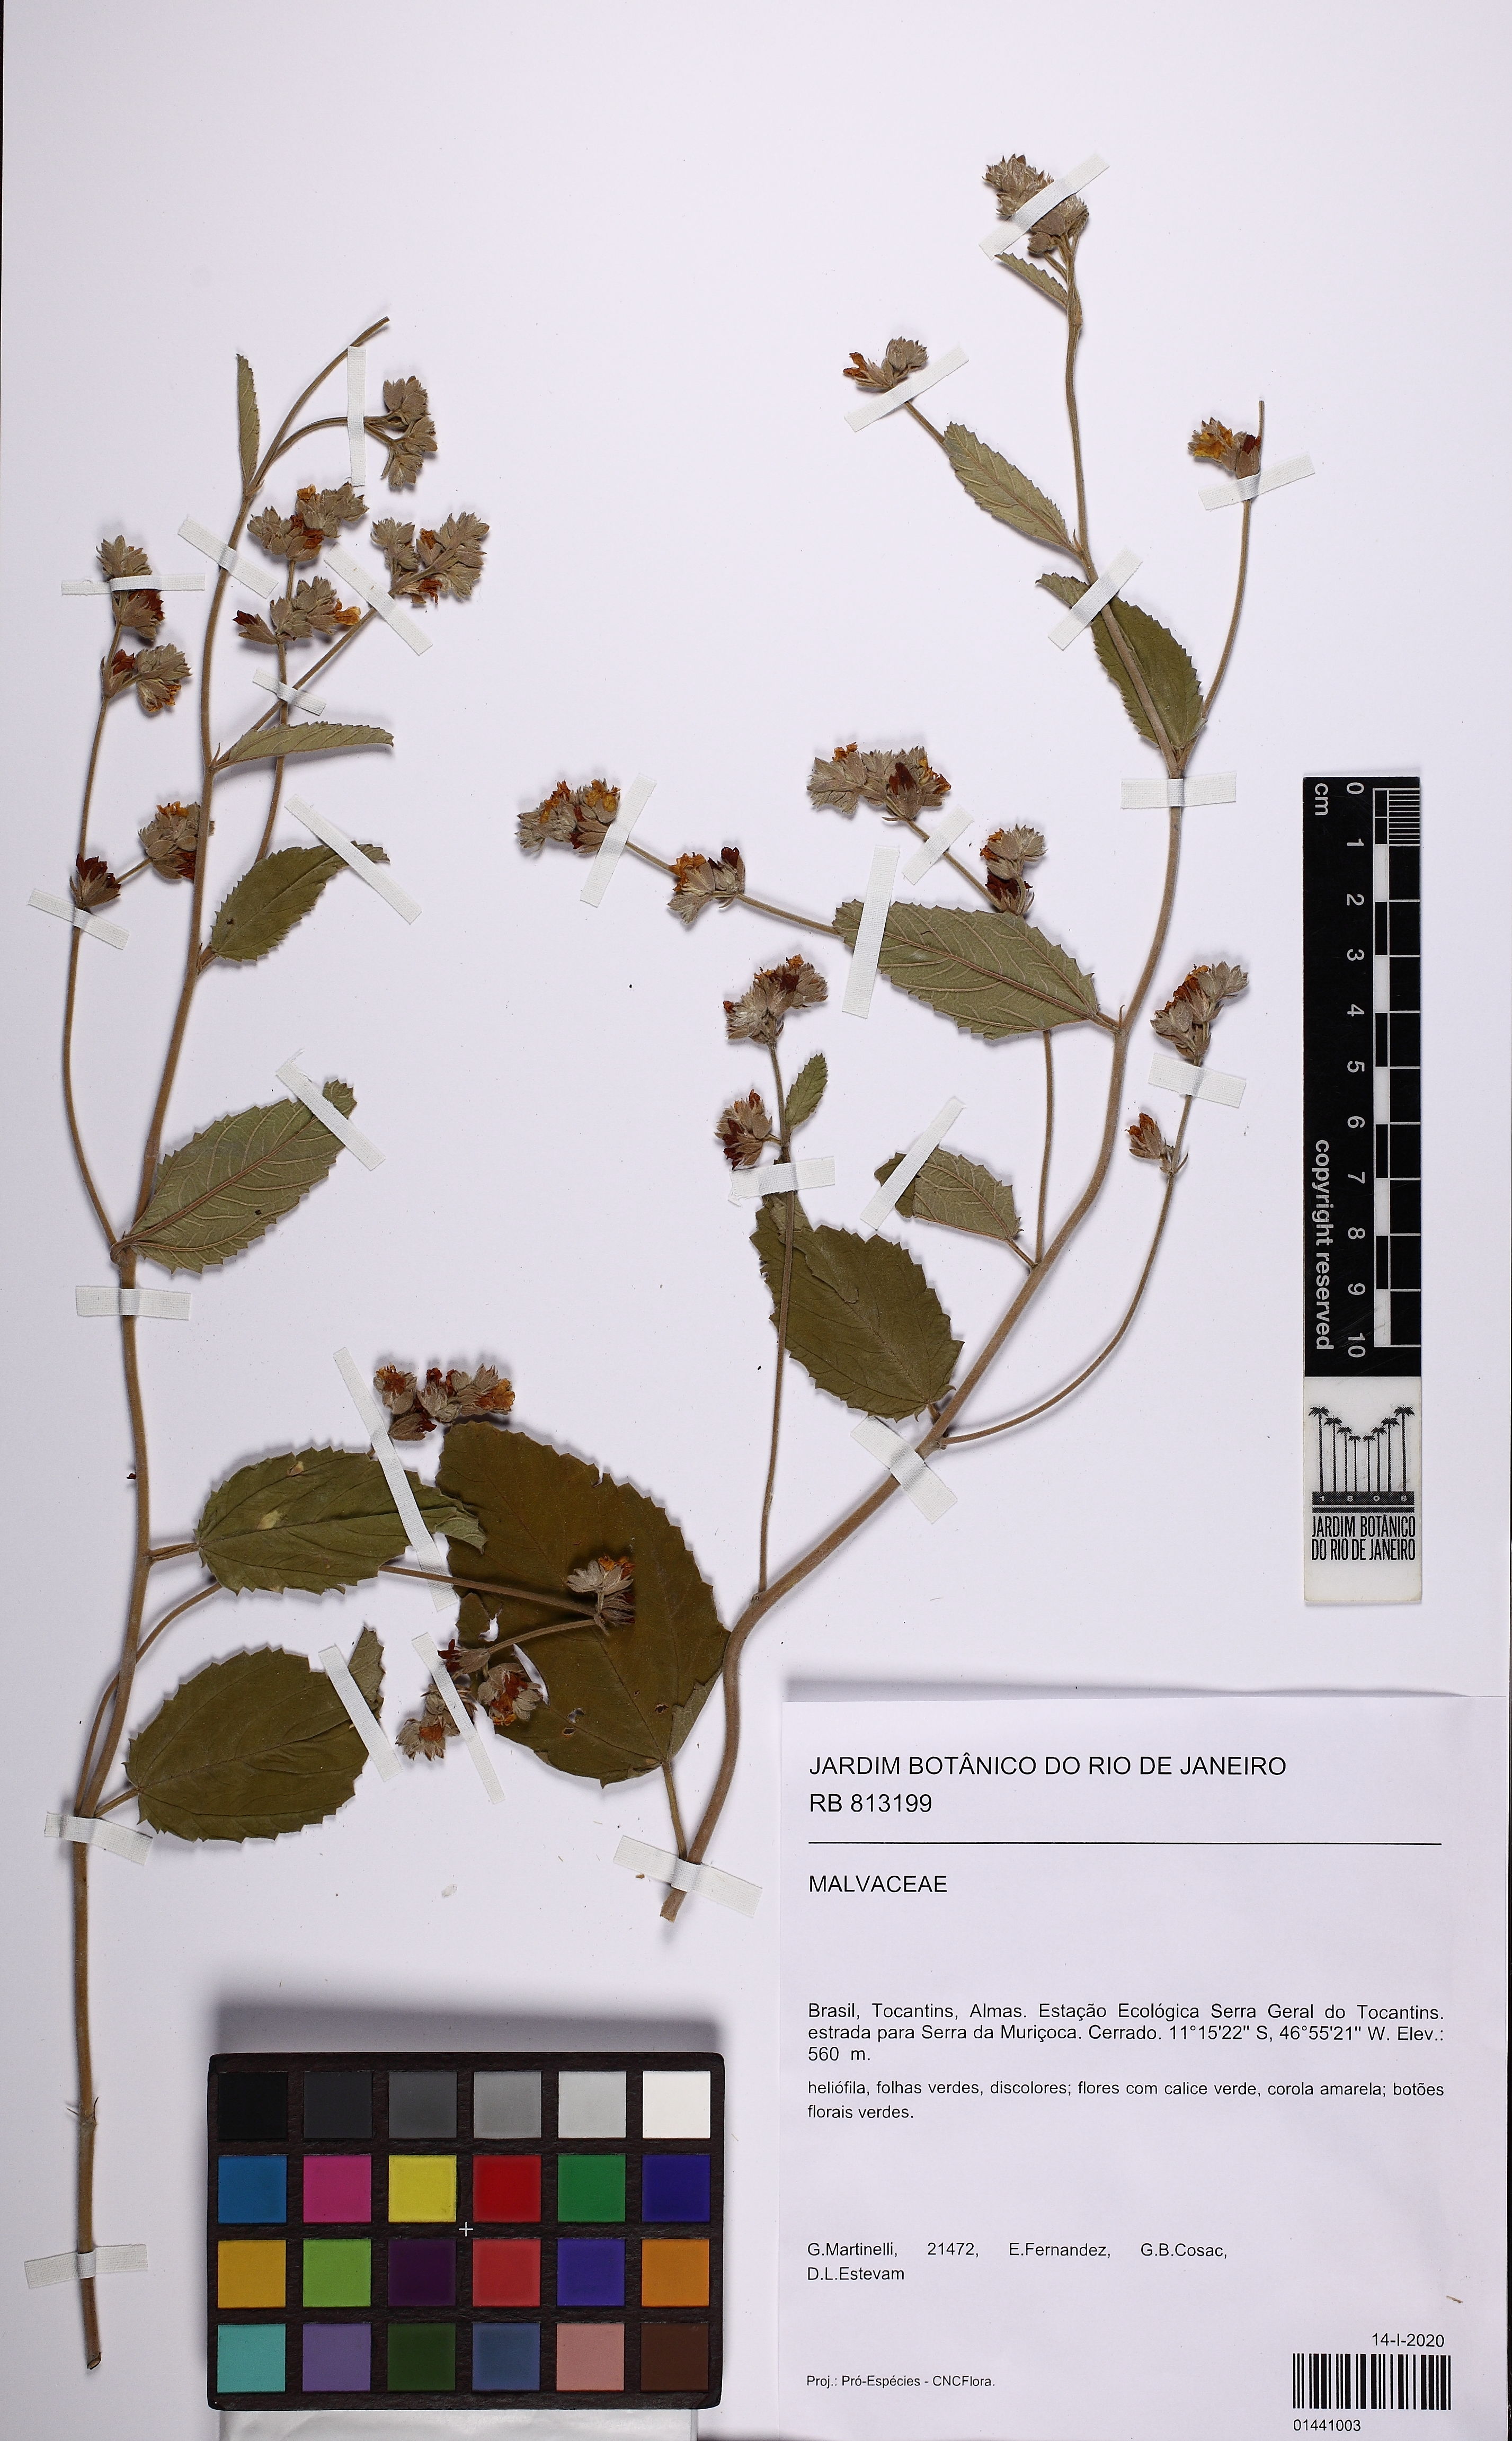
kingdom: Plantae
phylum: Tracheophyta
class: Magnoliopsida
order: Malvales
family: Malvaceae
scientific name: Malvaceae
